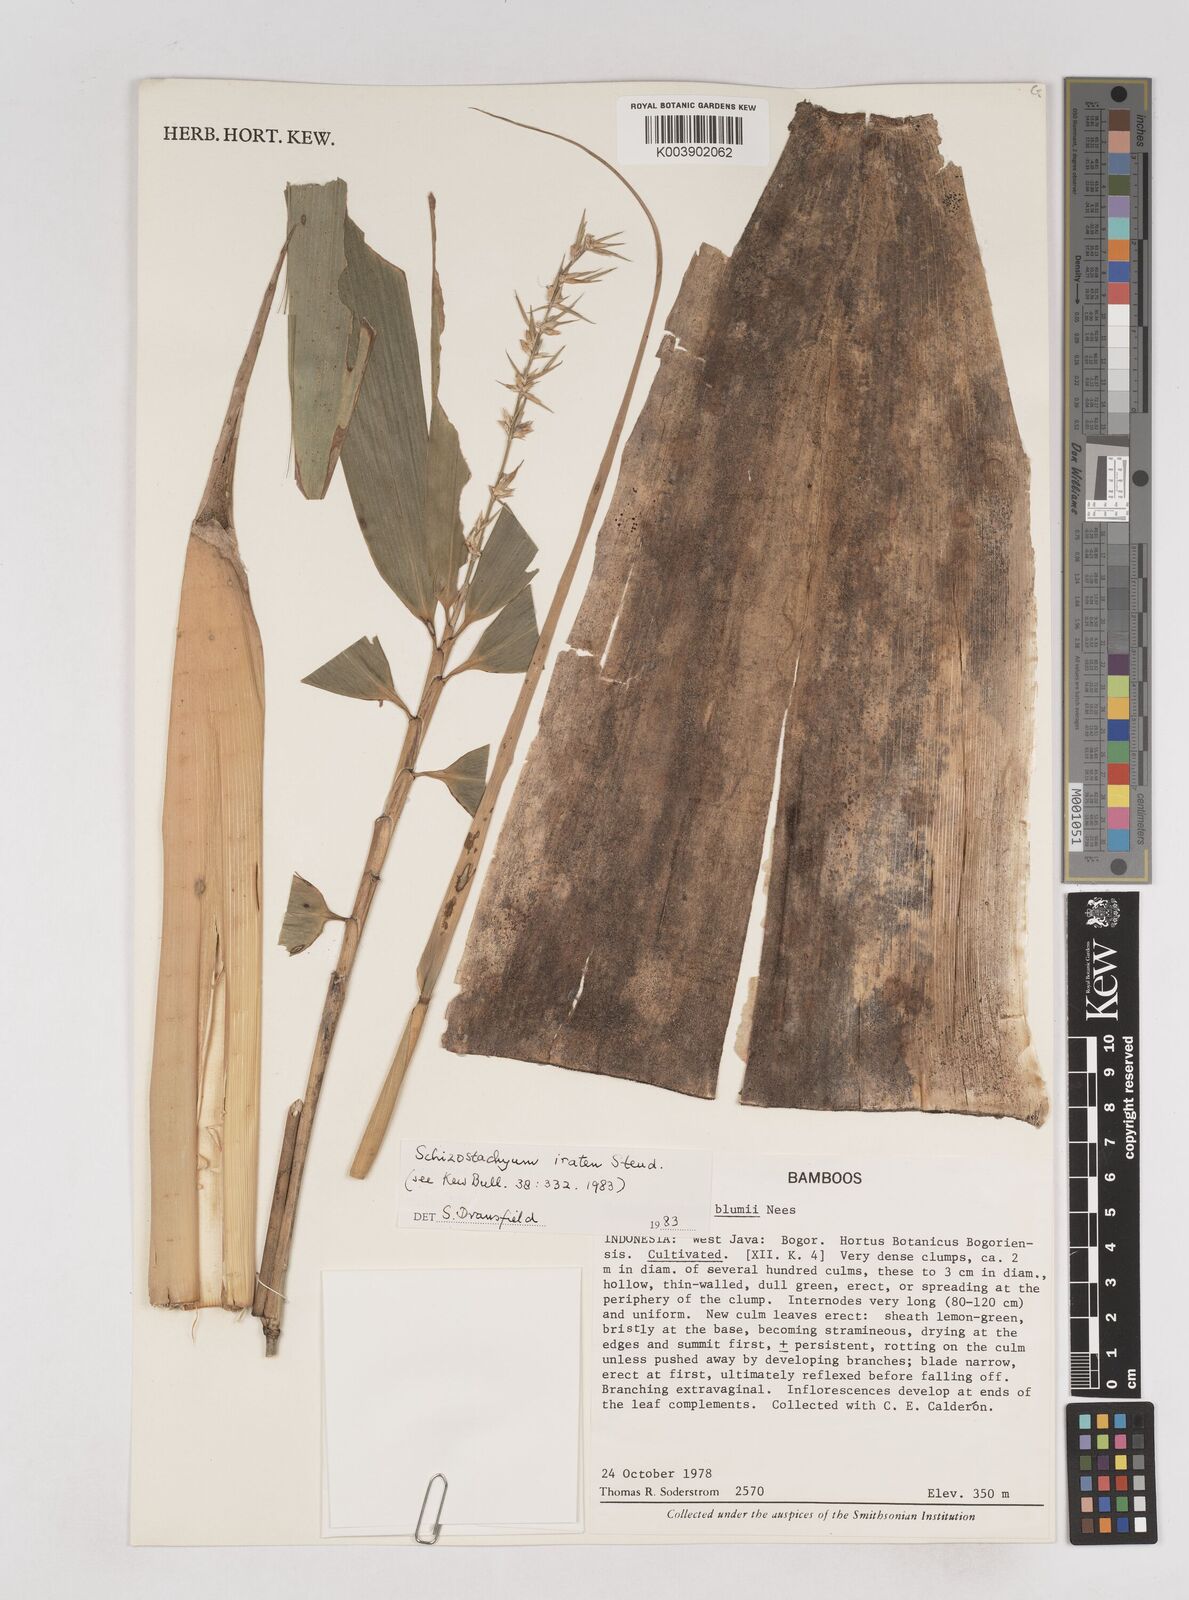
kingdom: Plantae
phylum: Tracheophyta
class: Liliopsida
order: Poales
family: Poaceae
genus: Schizostachyum
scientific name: Schizostachyum iraten
